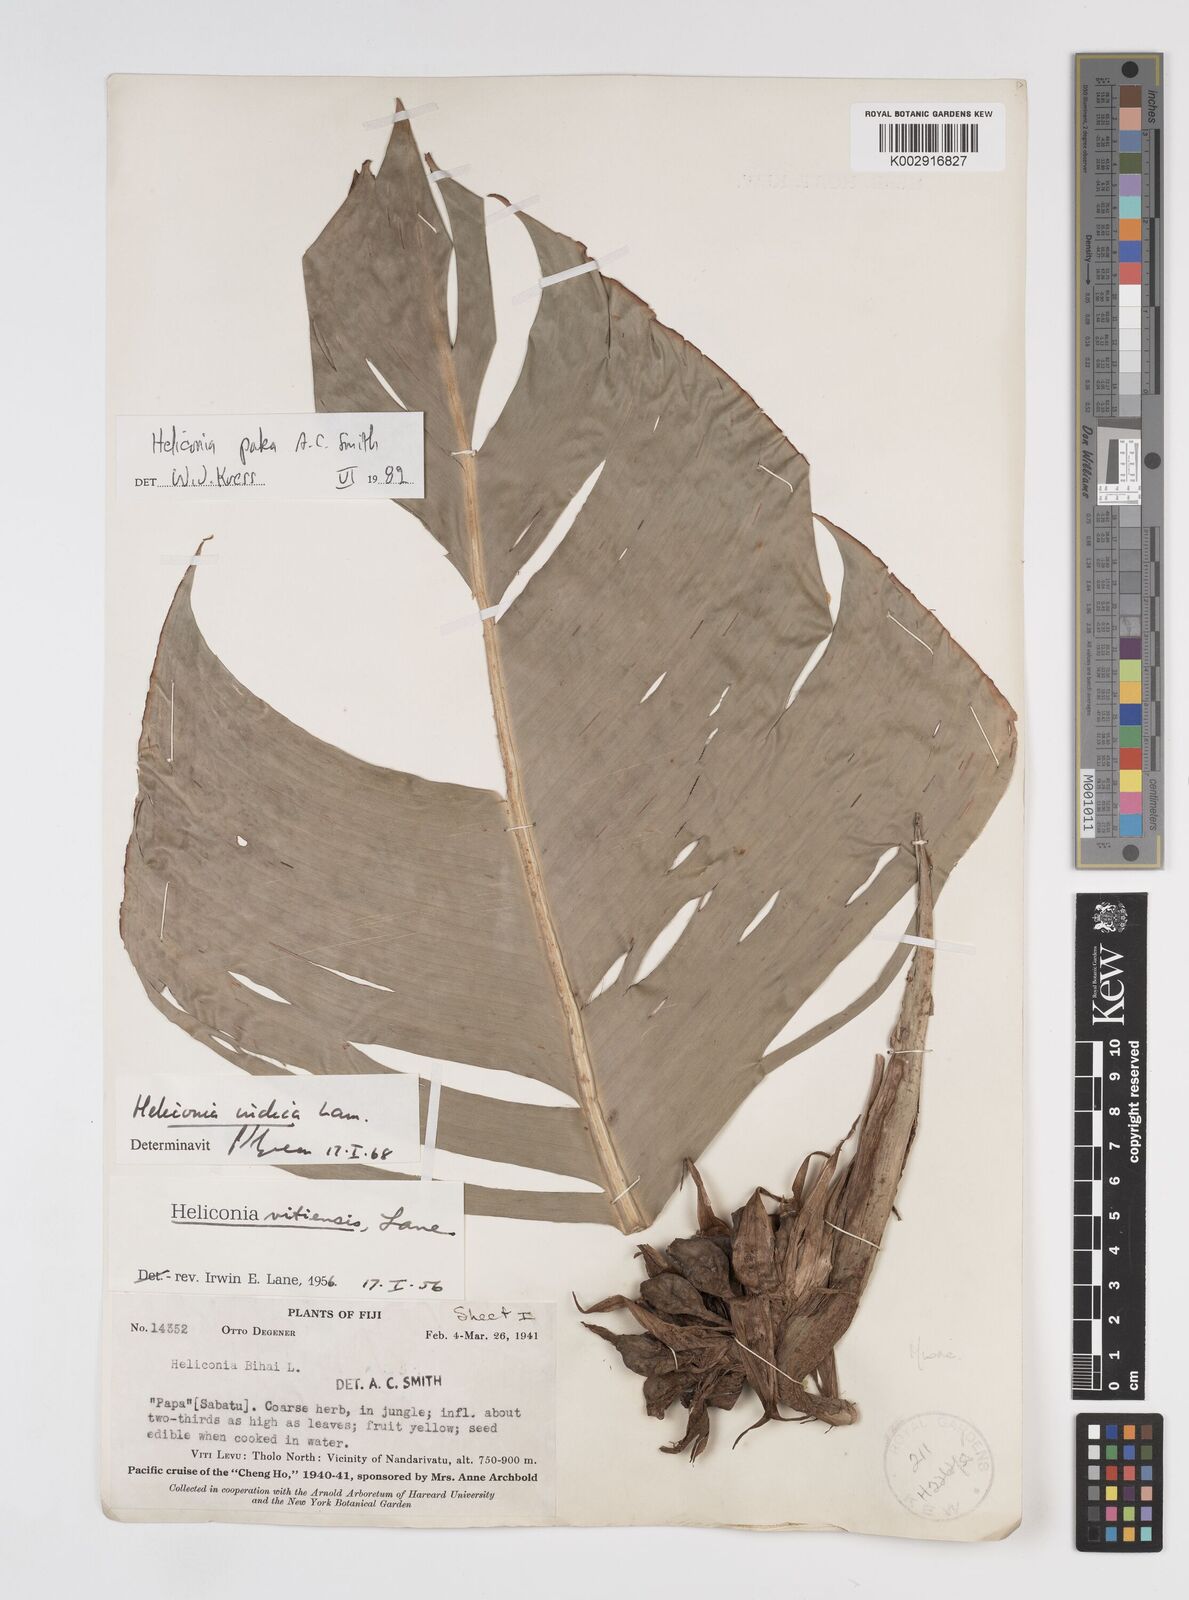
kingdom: Plantae
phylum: Tracheophyta
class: Liliopsida
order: Zingiberales
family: Heliconiaceae
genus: Heliconia
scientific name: Heliconia paka
